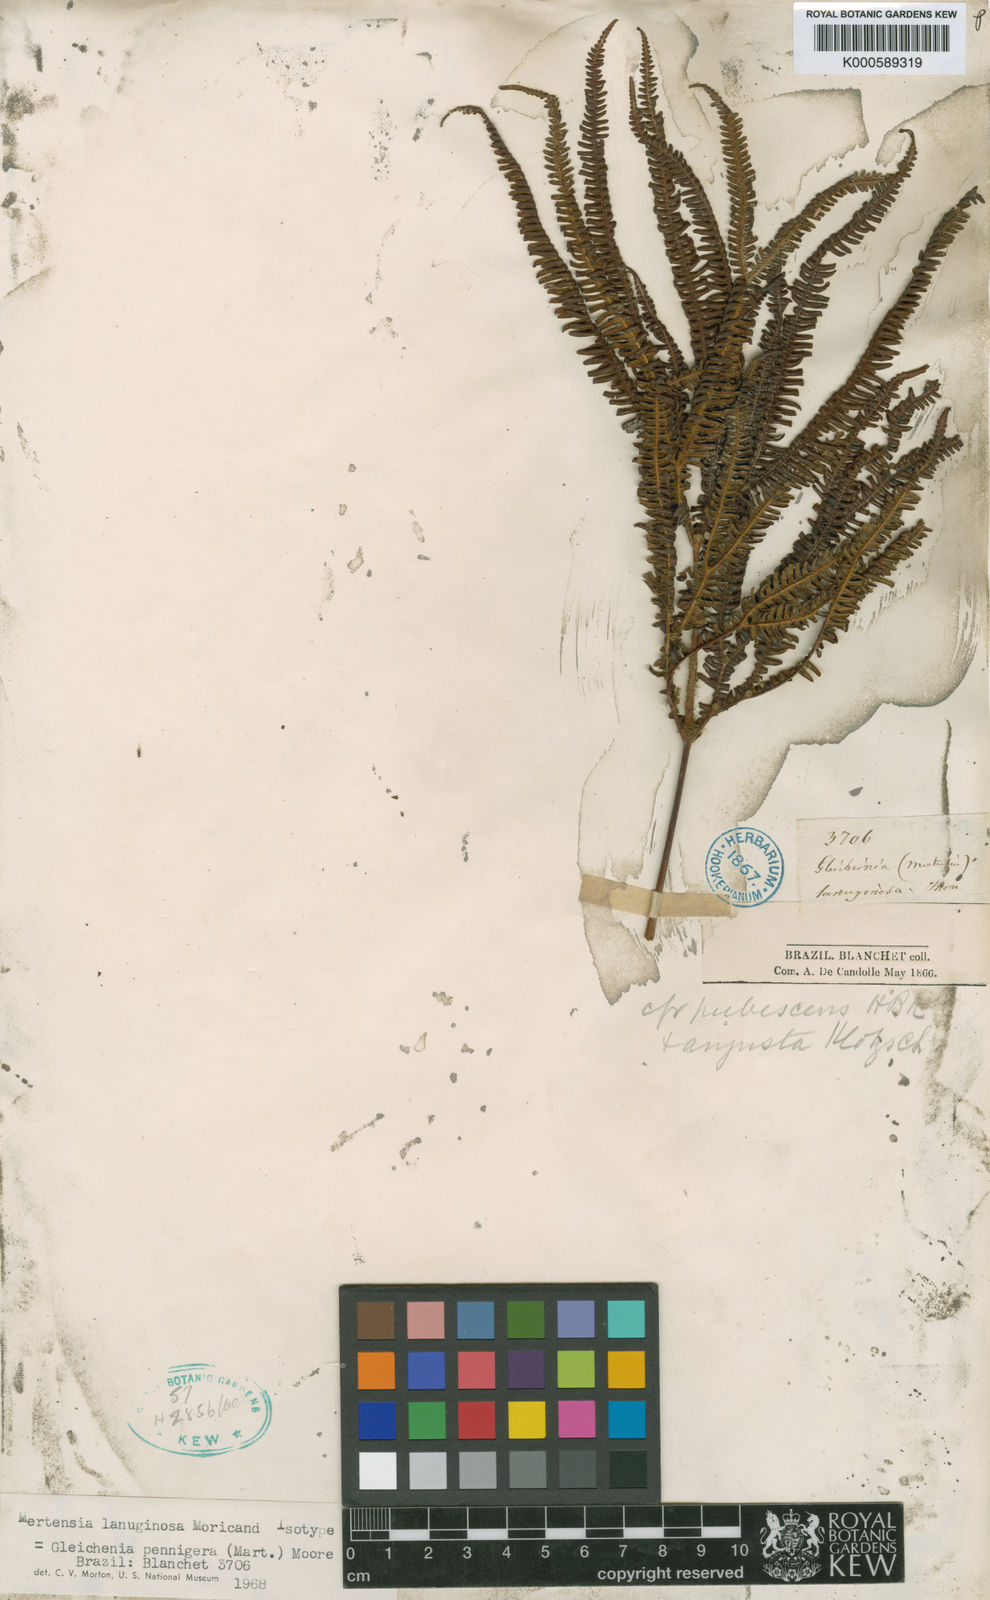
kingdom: Plantae
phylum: Tracheophyta
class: Polypodiopsida
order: Gleicheniales
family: Gleicheniaceae
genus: Sticherus
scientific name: Sticherus penniger
